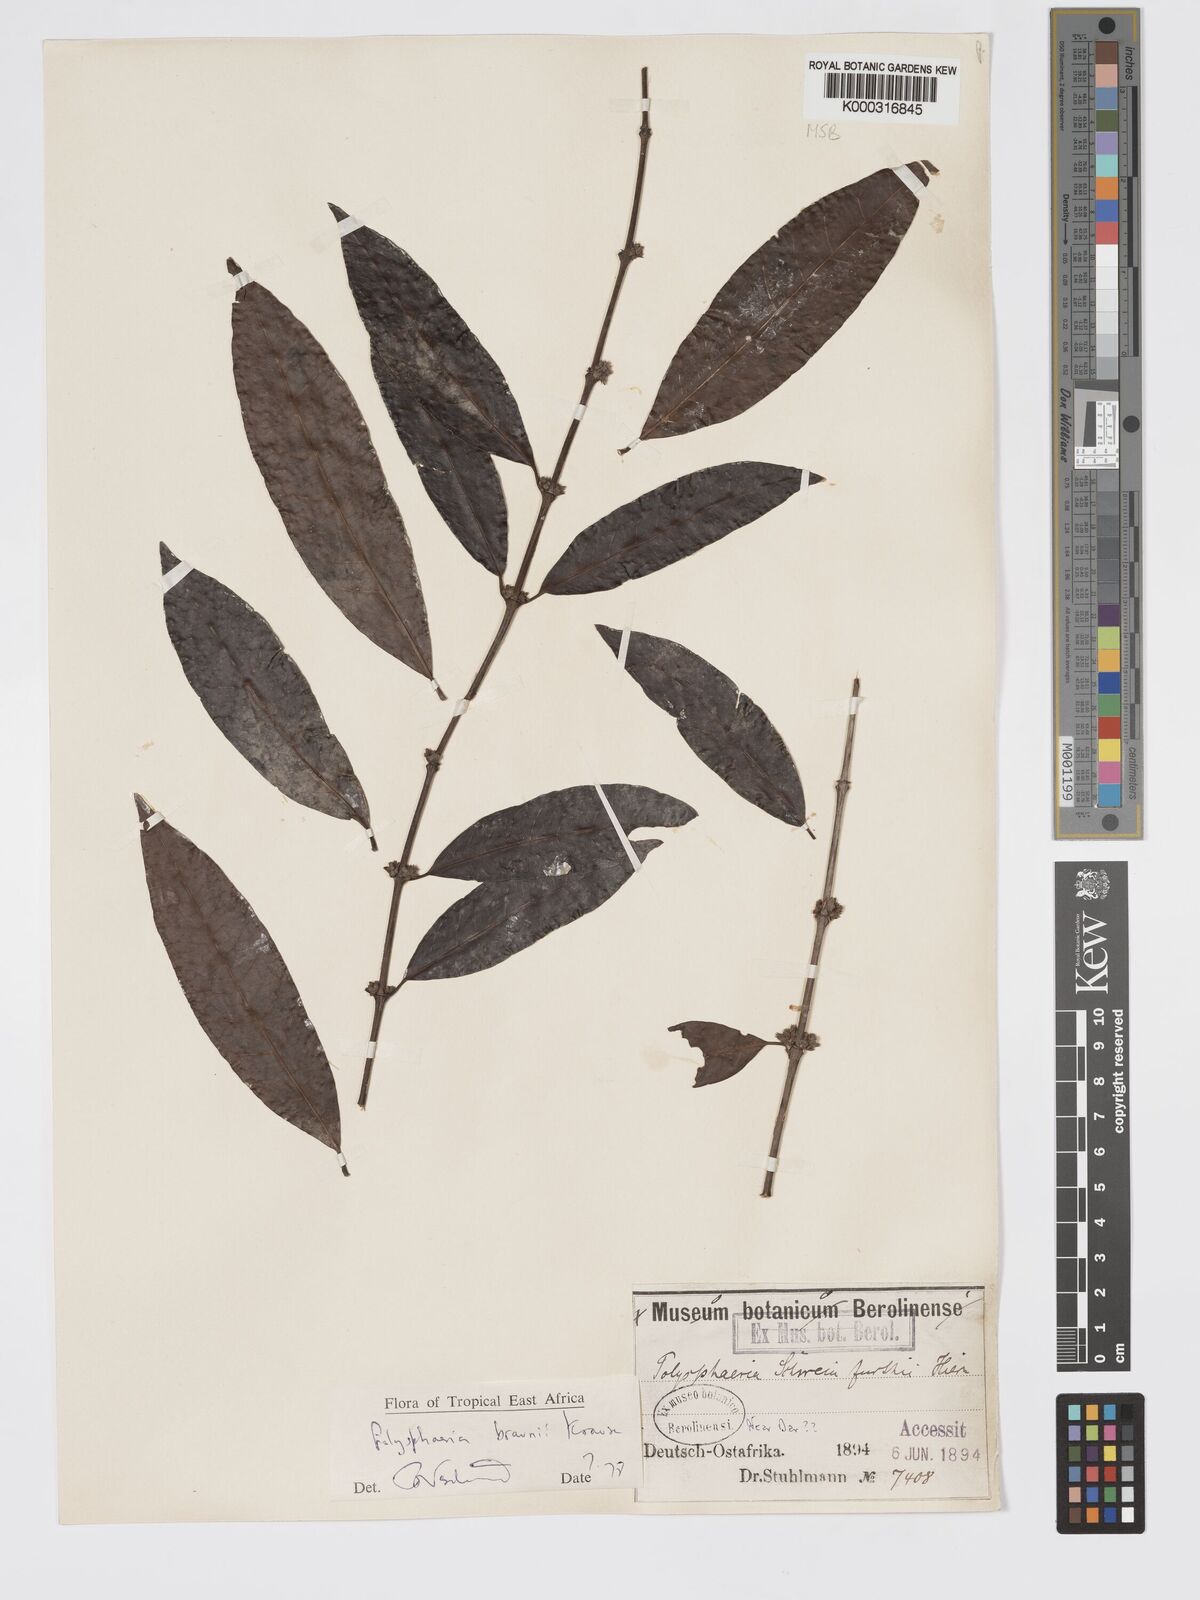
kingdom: Plantae
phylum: Tracheophyta
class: Magnoliopsida
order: Gentianales
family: Rubiaceae
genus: Polysphaeria
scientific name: Polysphaeria braunii
